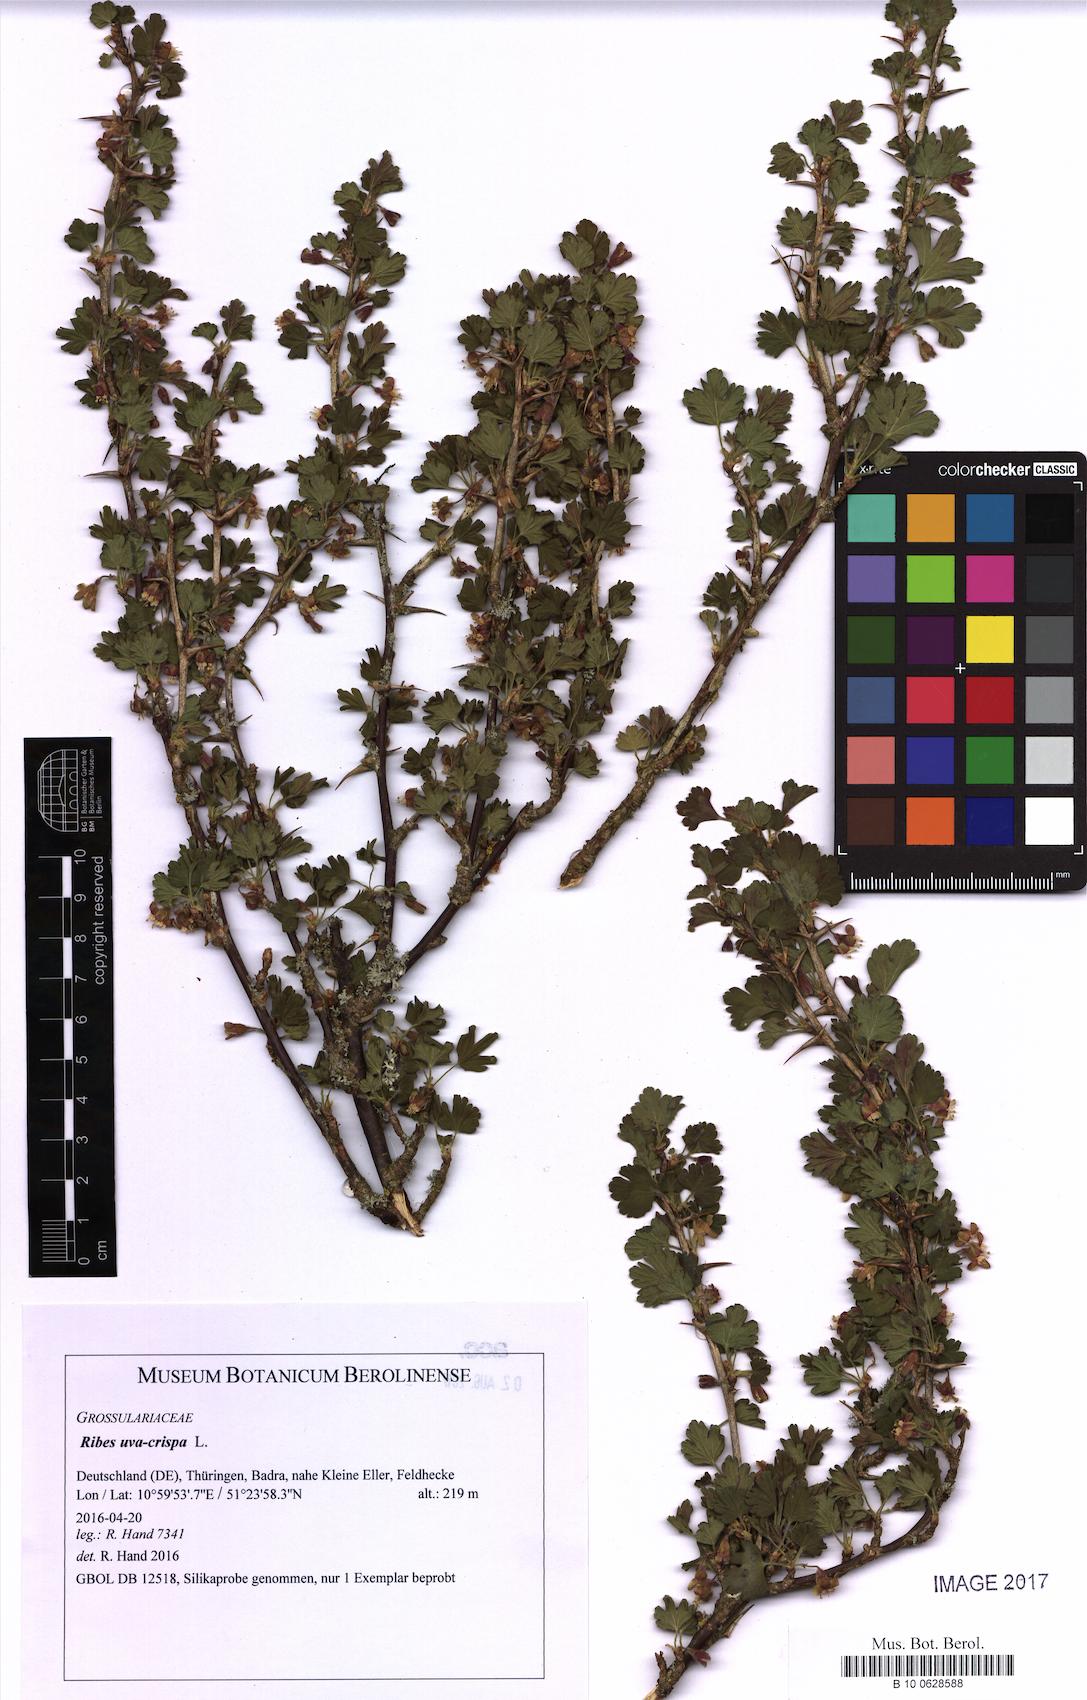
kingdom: Plantae
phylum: Tracheophyta
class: Magnoliopsida
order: Saxifragales
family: Grossulariaceae
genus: Ribes
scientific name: Ribes uva-crispa
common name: Gooseberry
